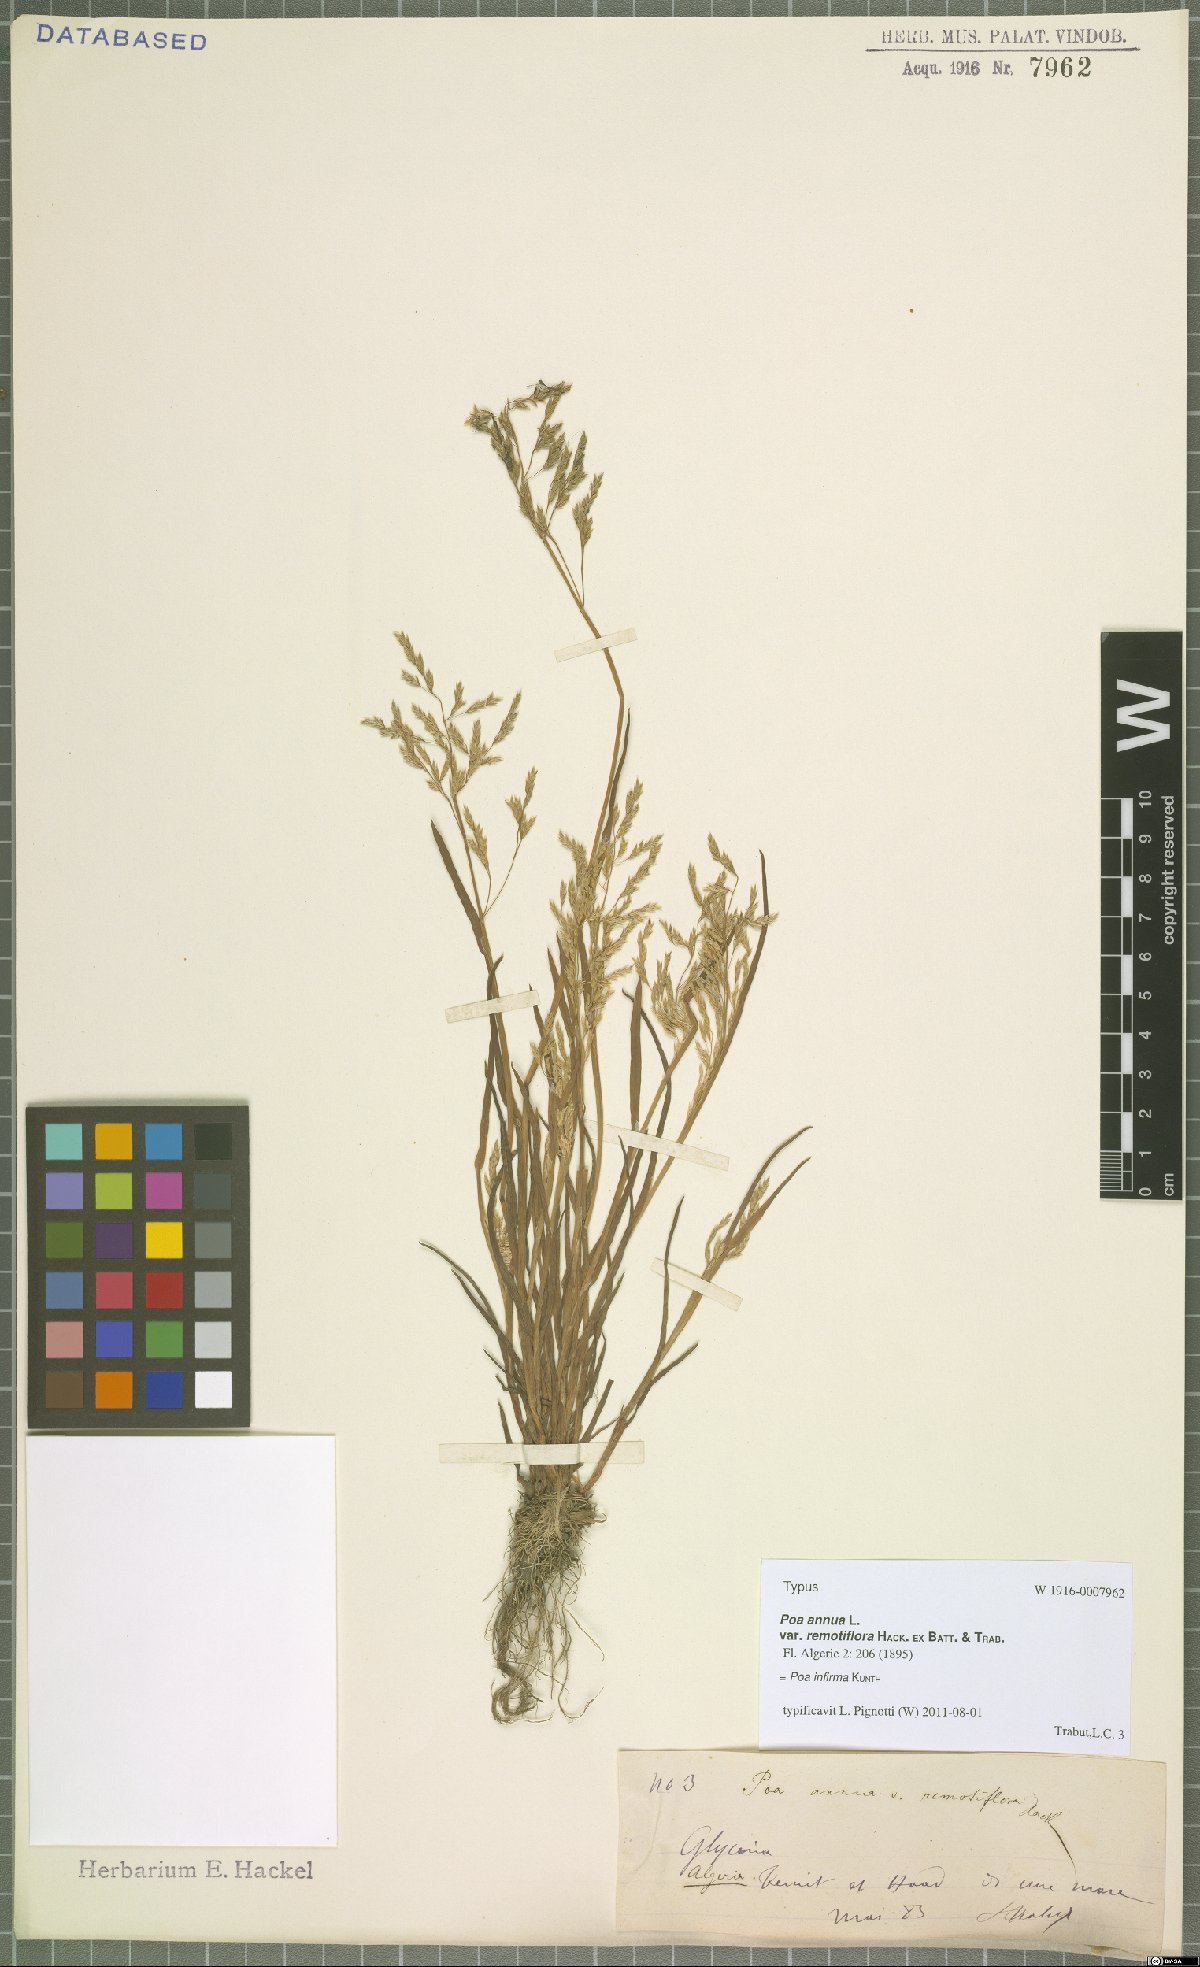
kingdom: Plantae
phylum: Tracheophyta
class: Liliopsida
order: Poales
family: Poaceae
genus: Poa
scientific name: Poa infirma
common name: Weak bluegrass
